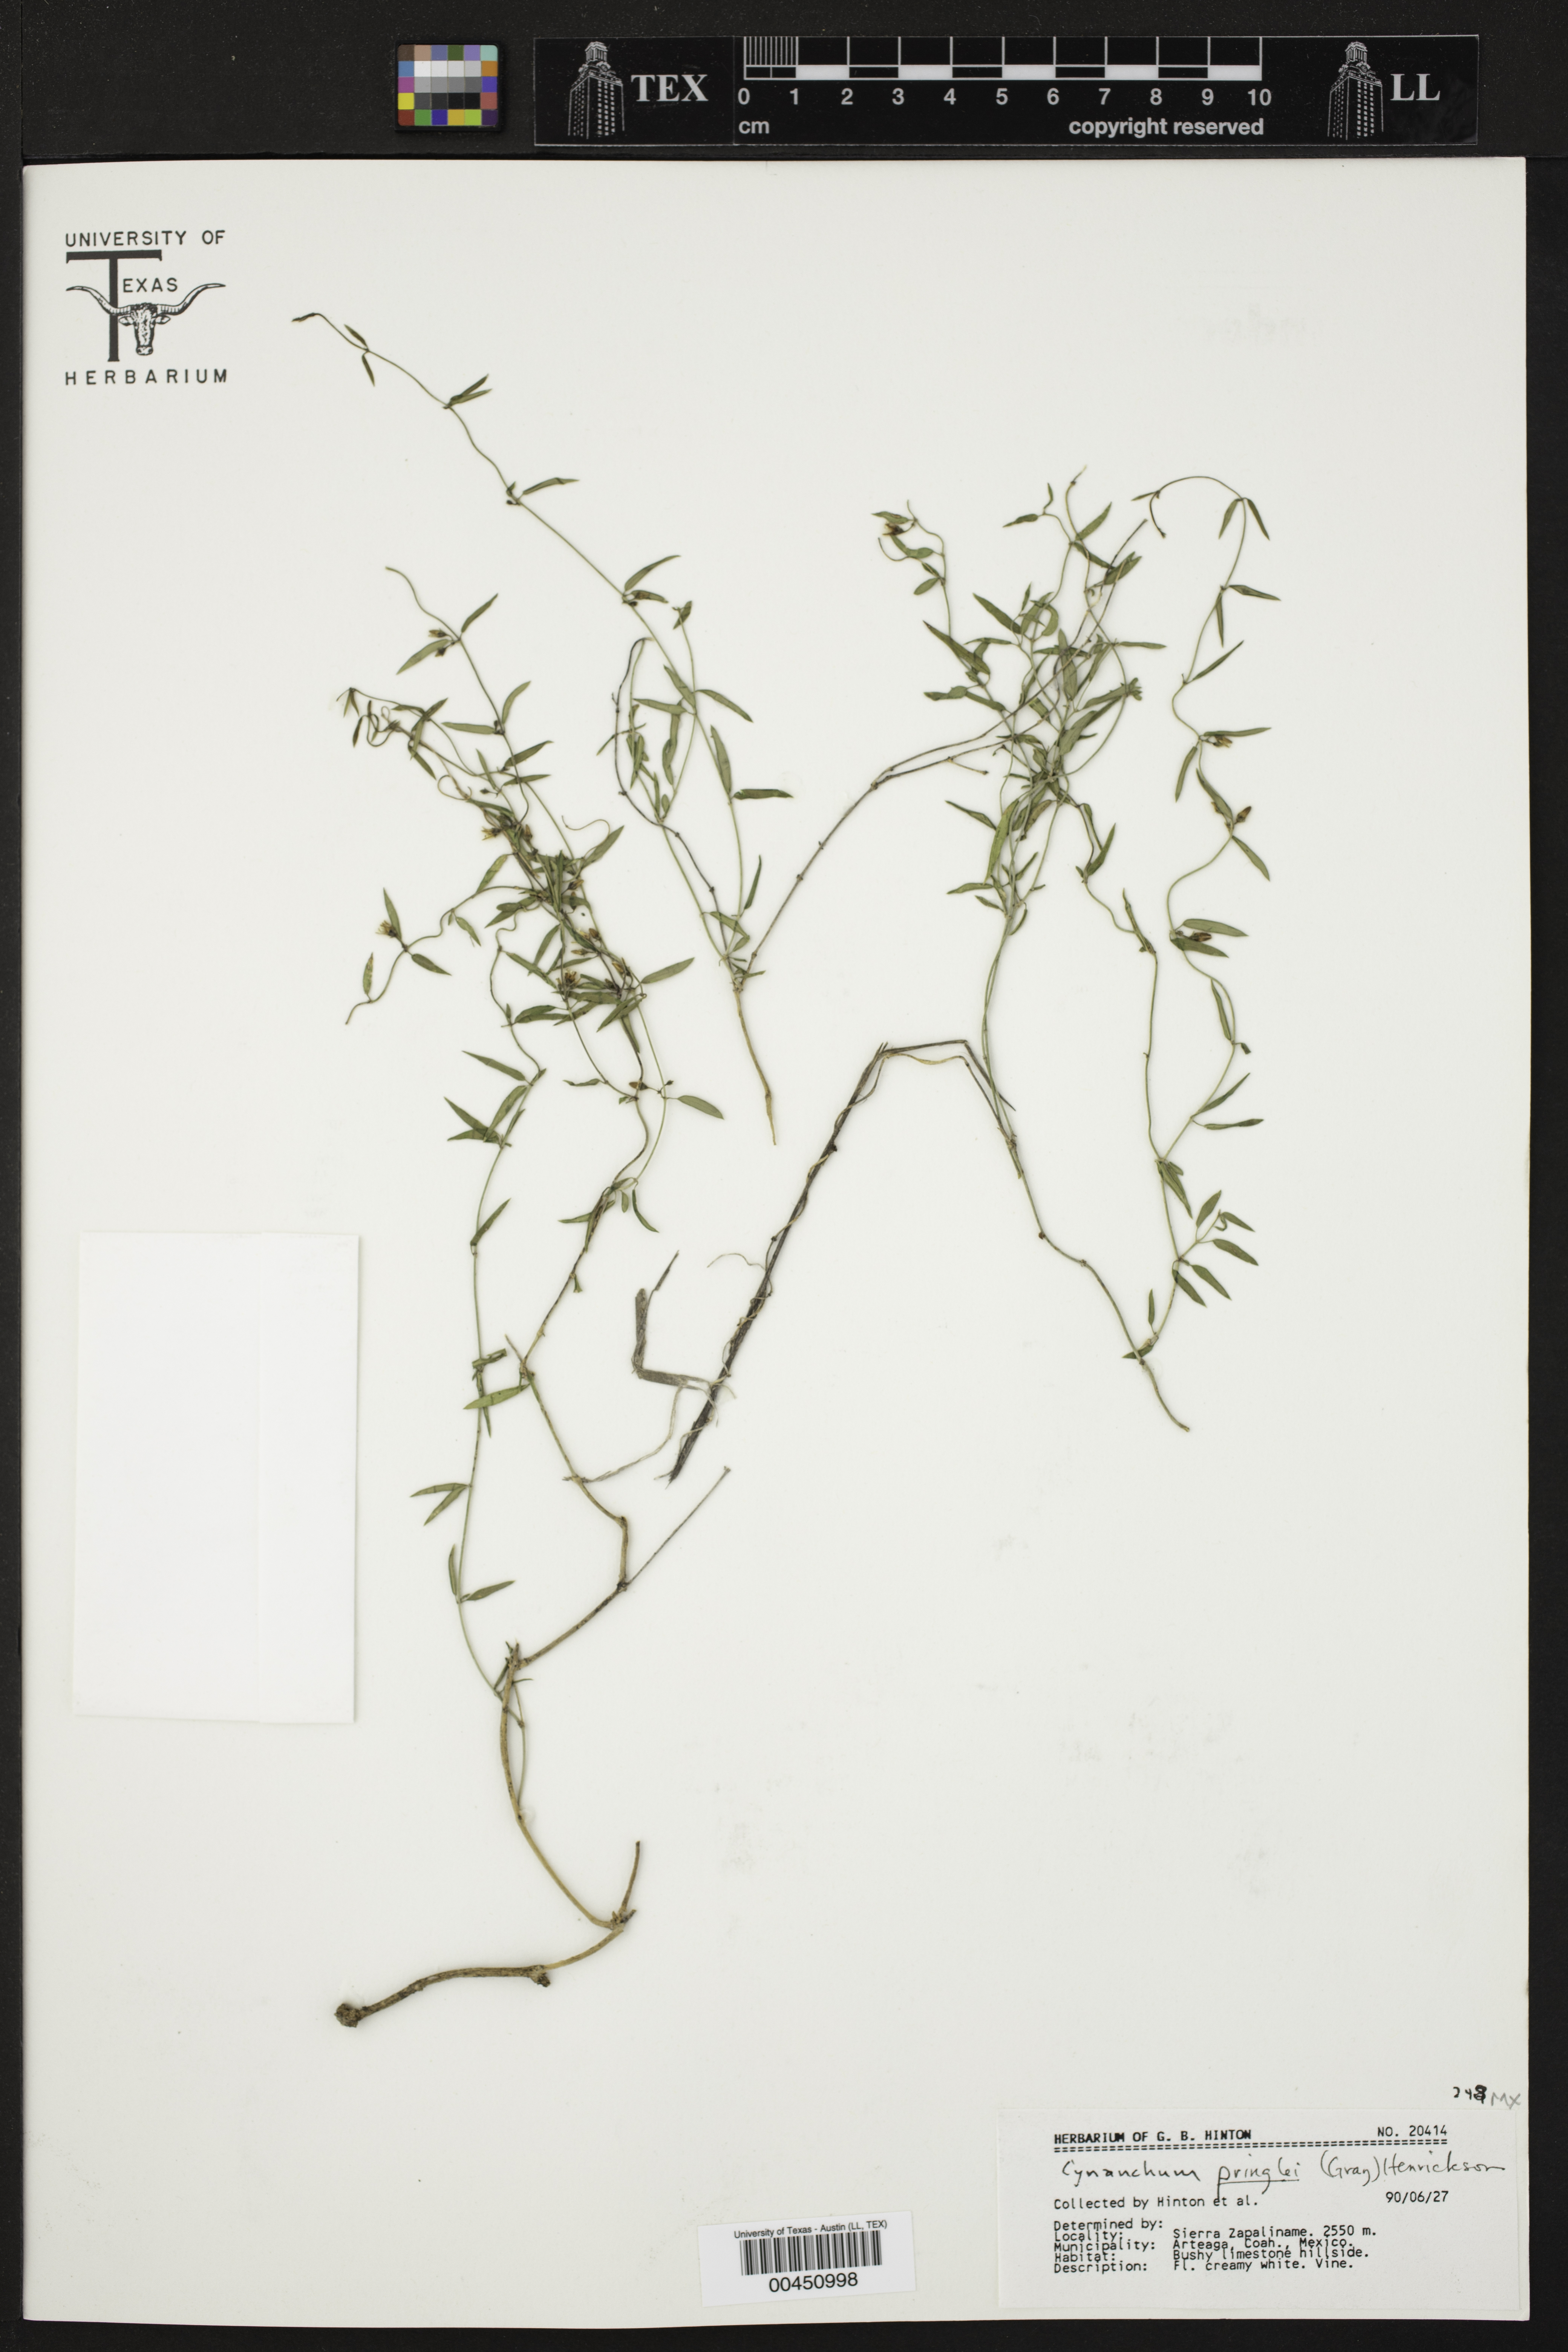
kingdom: Plantae
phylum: Tracheophyta
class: Magnoliopsida
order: Gentianales
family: Apocynaceae
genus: Metastelma
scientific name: Metastelma pringlei
